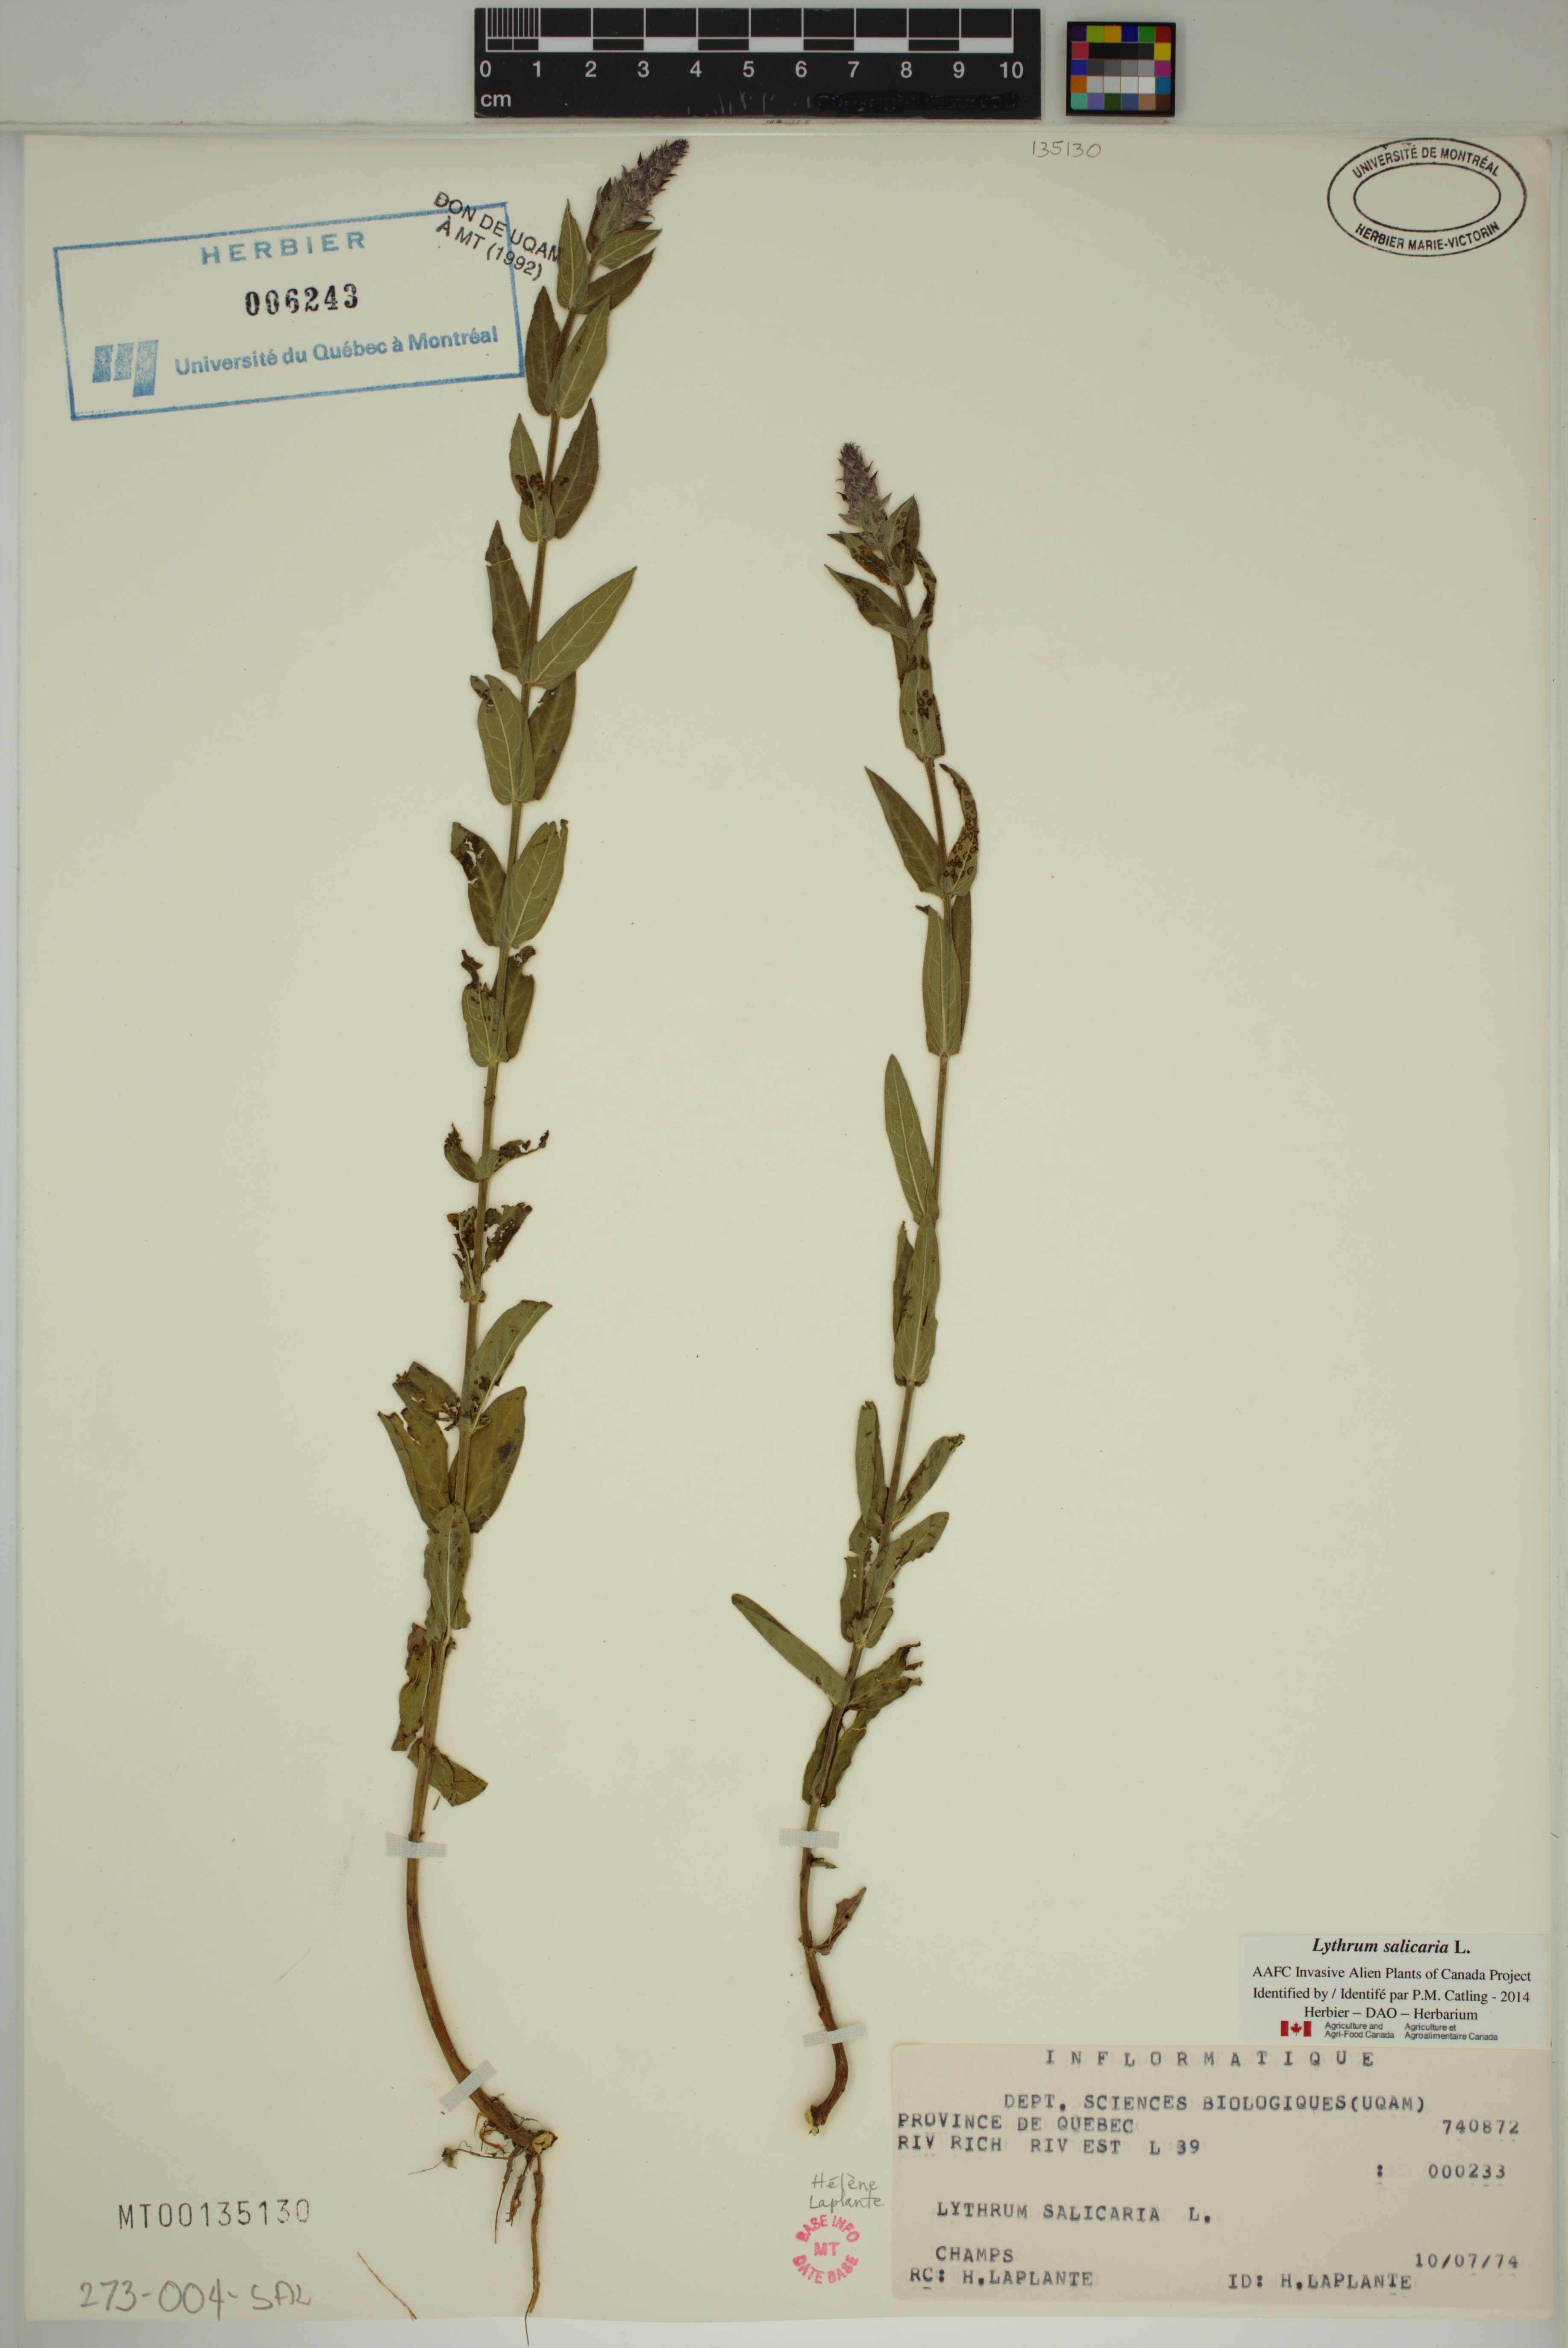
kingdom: Plantae
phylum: Tracheophyta
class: Magnoliopsida
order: Myrtales
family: Lythraceae
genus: Lythrum
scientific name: Lythrum salicaria
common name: Purple loosestrife
